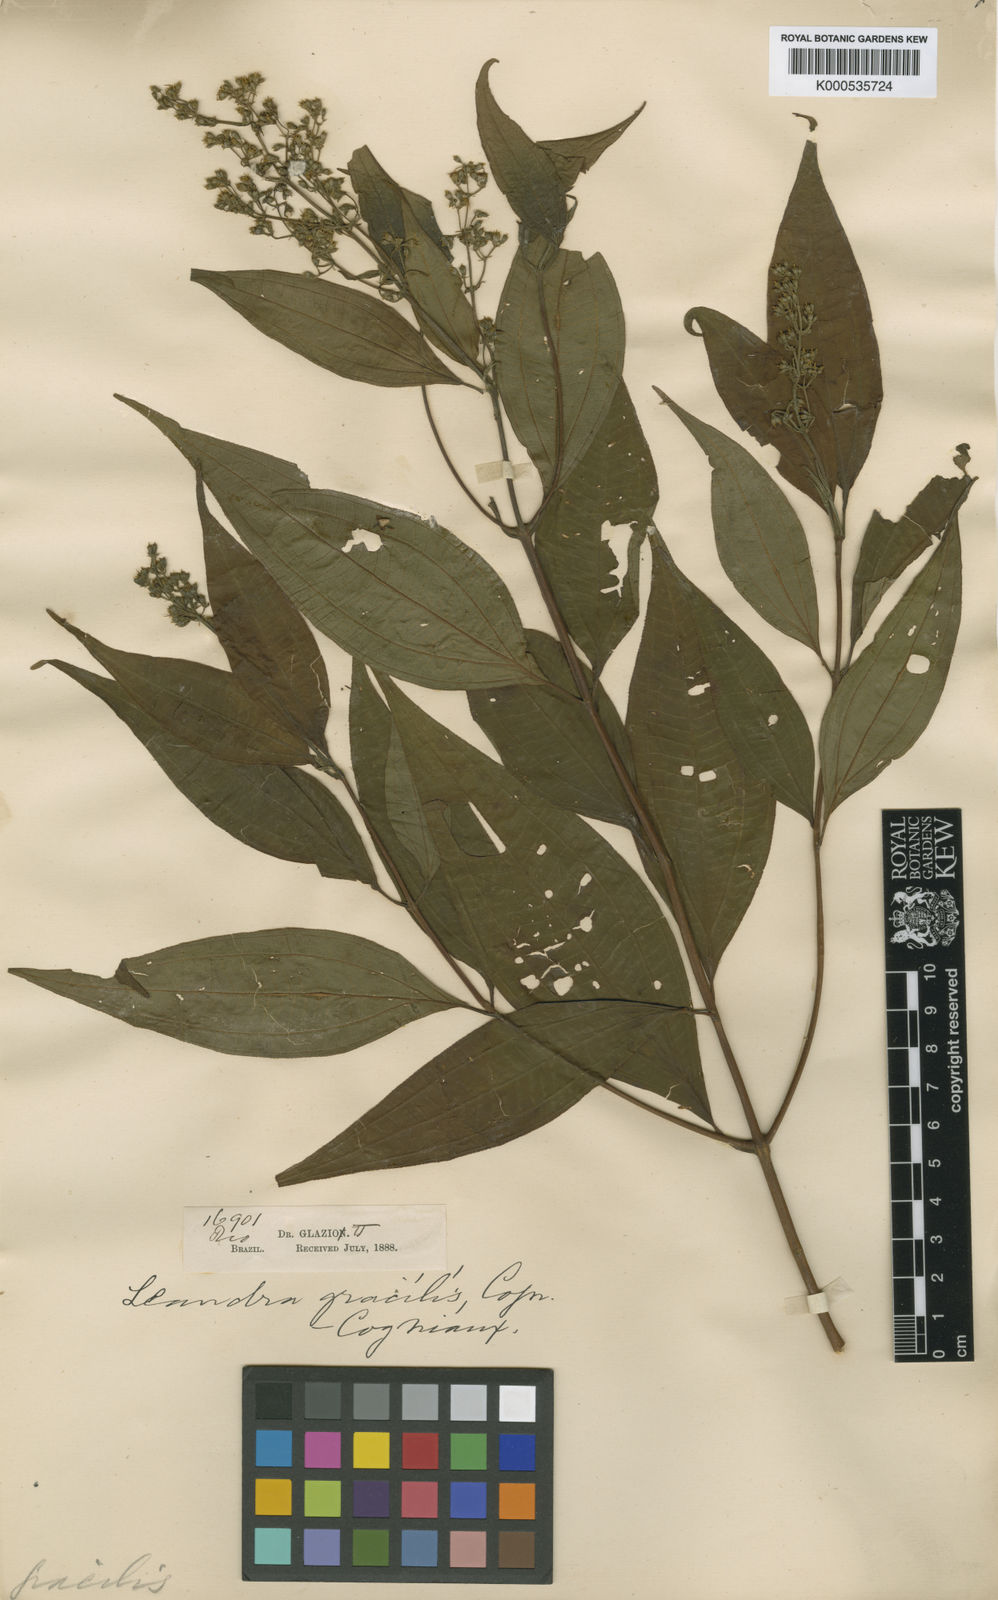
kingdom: Plantae
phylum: Tracheophyta
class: Magnoliopsida
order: Myrtales
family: Melastomataceae
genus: Miconia
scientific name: Miconia leagracilis
